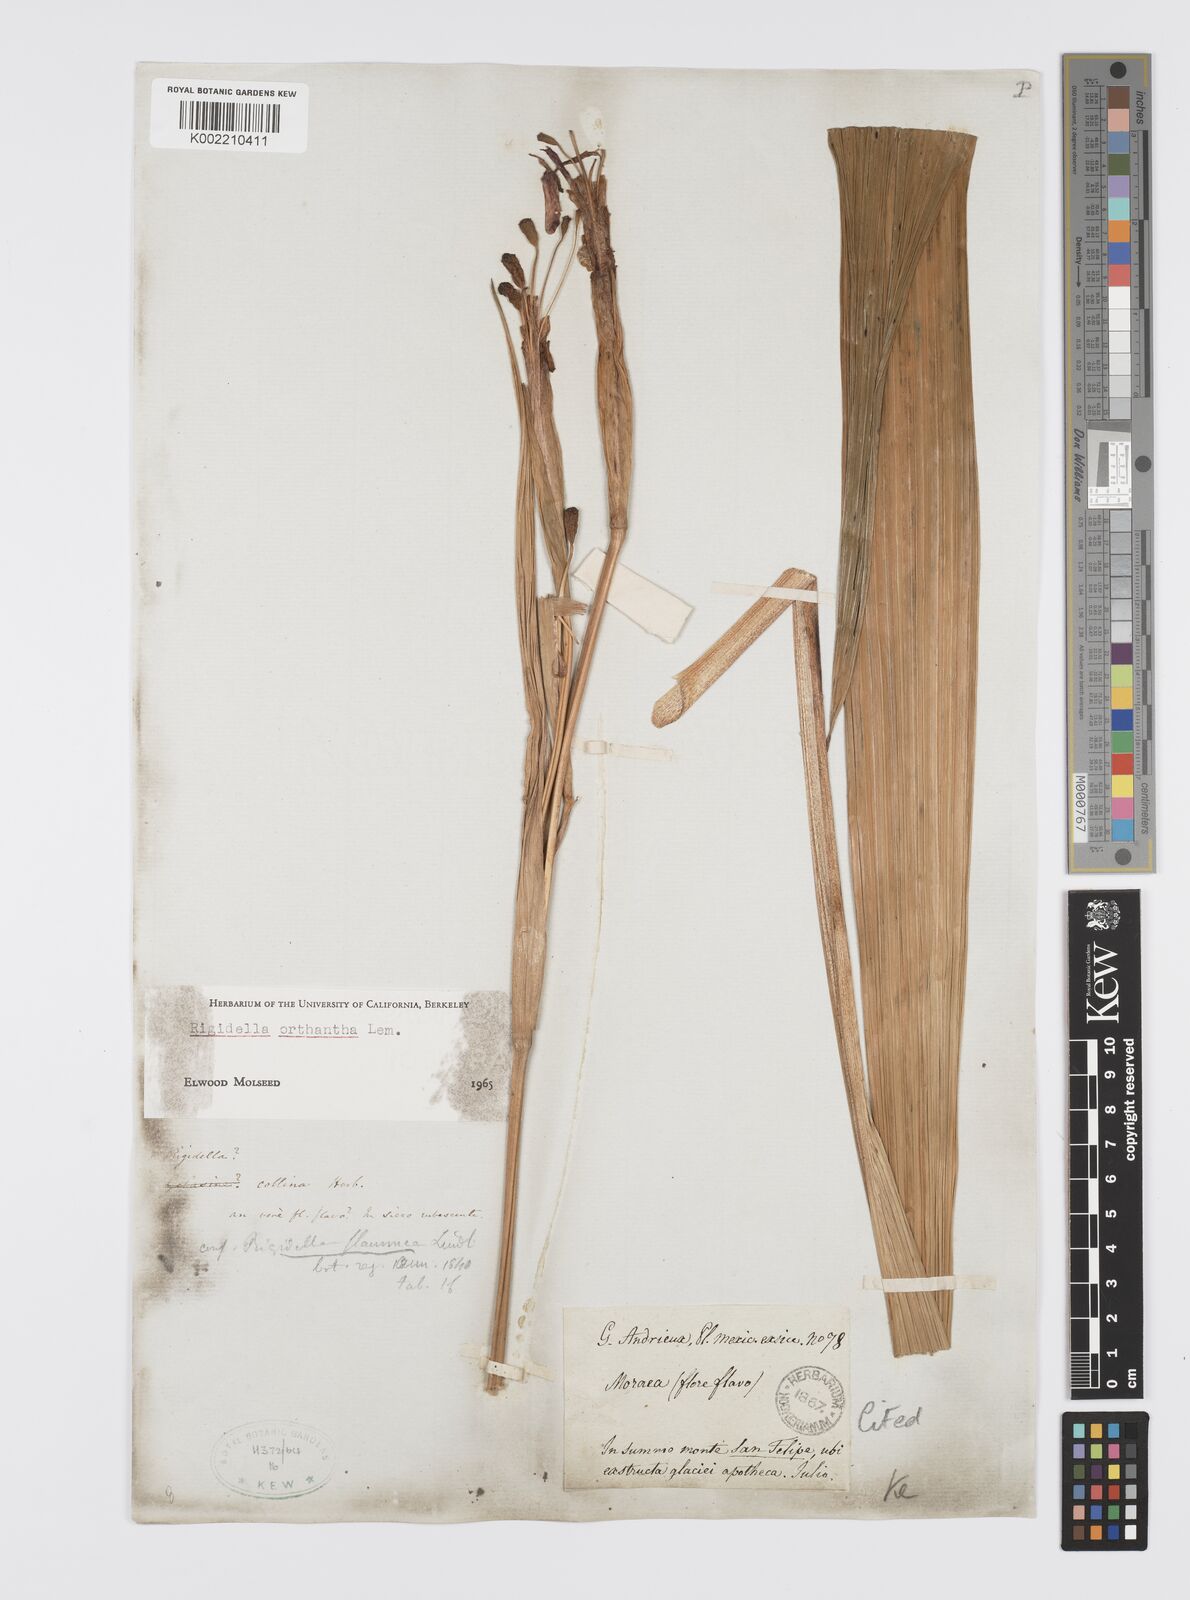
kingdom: Plantae
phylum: Tracheophyta
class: Liliopsida
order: Asparagales
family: Iridaceae
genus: Tigridia
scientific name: Tigridia orthantha
